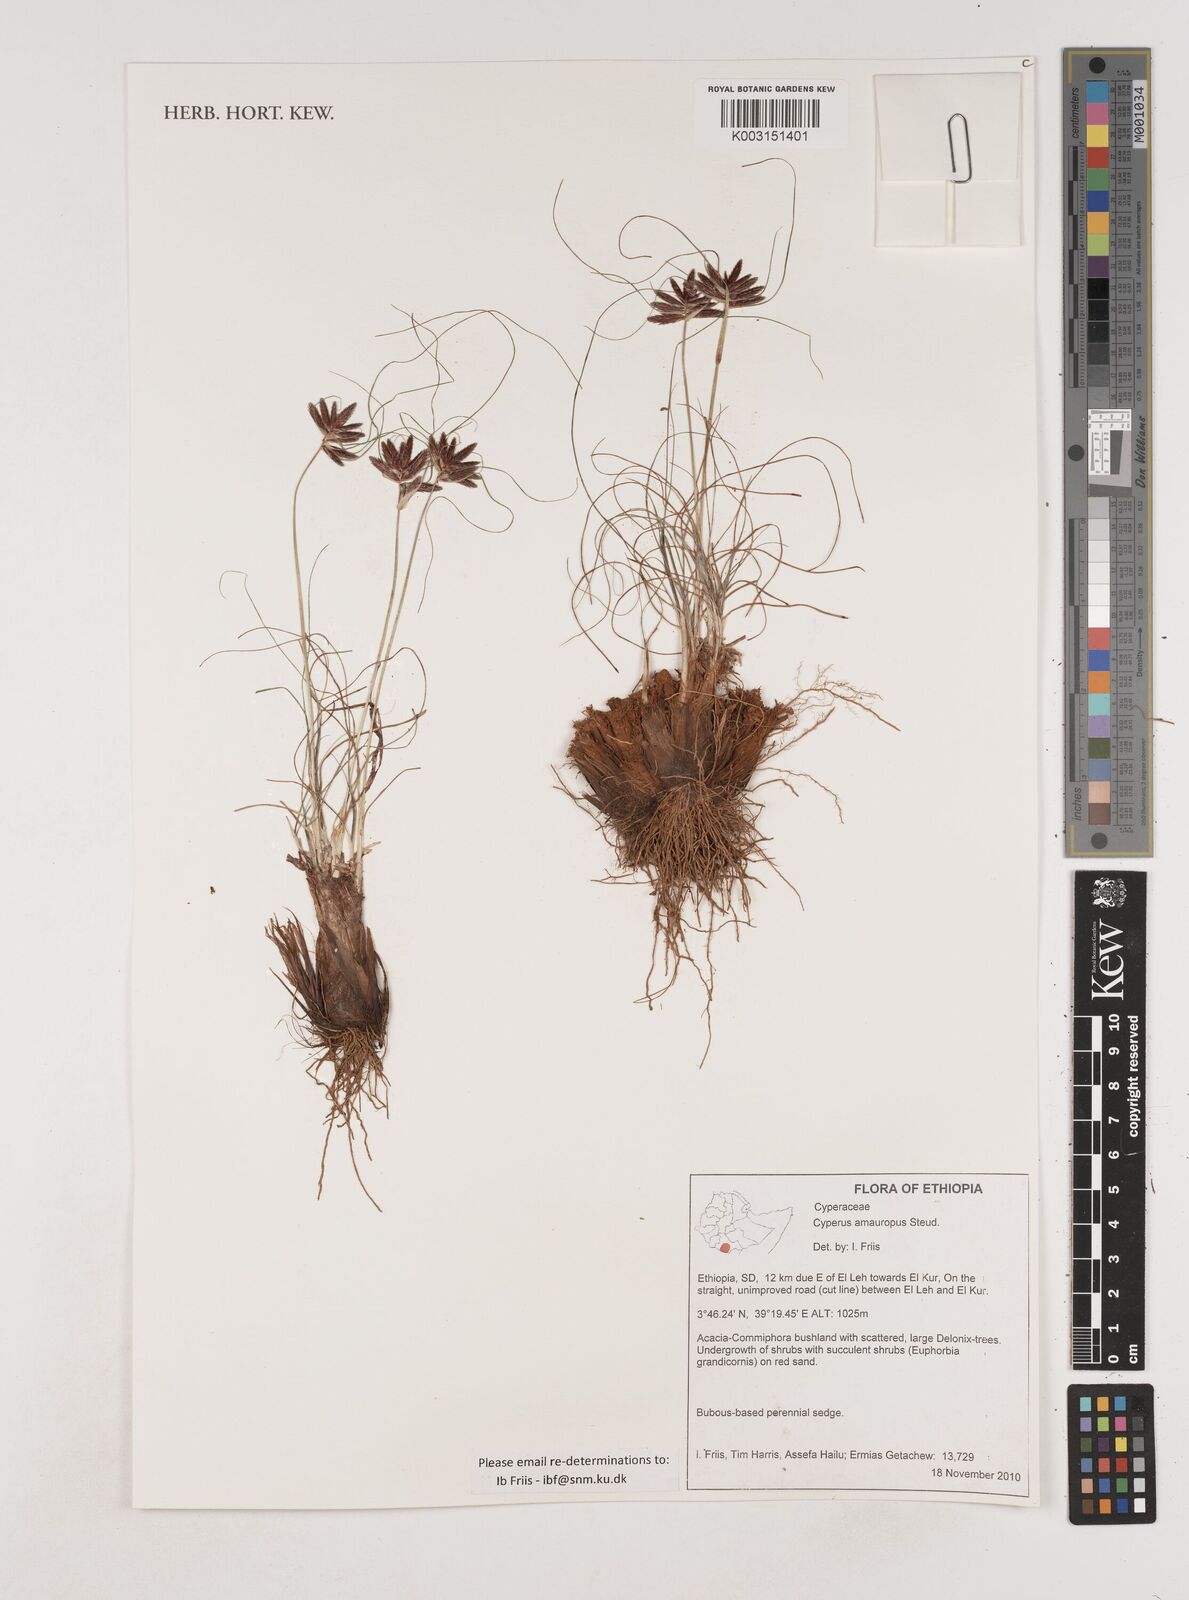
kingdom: Plantae
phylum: Tracheophyta
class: Liliopsida
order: Poales
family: Cyperaceae
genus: Cyperus
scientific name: Cyperus amauropus
